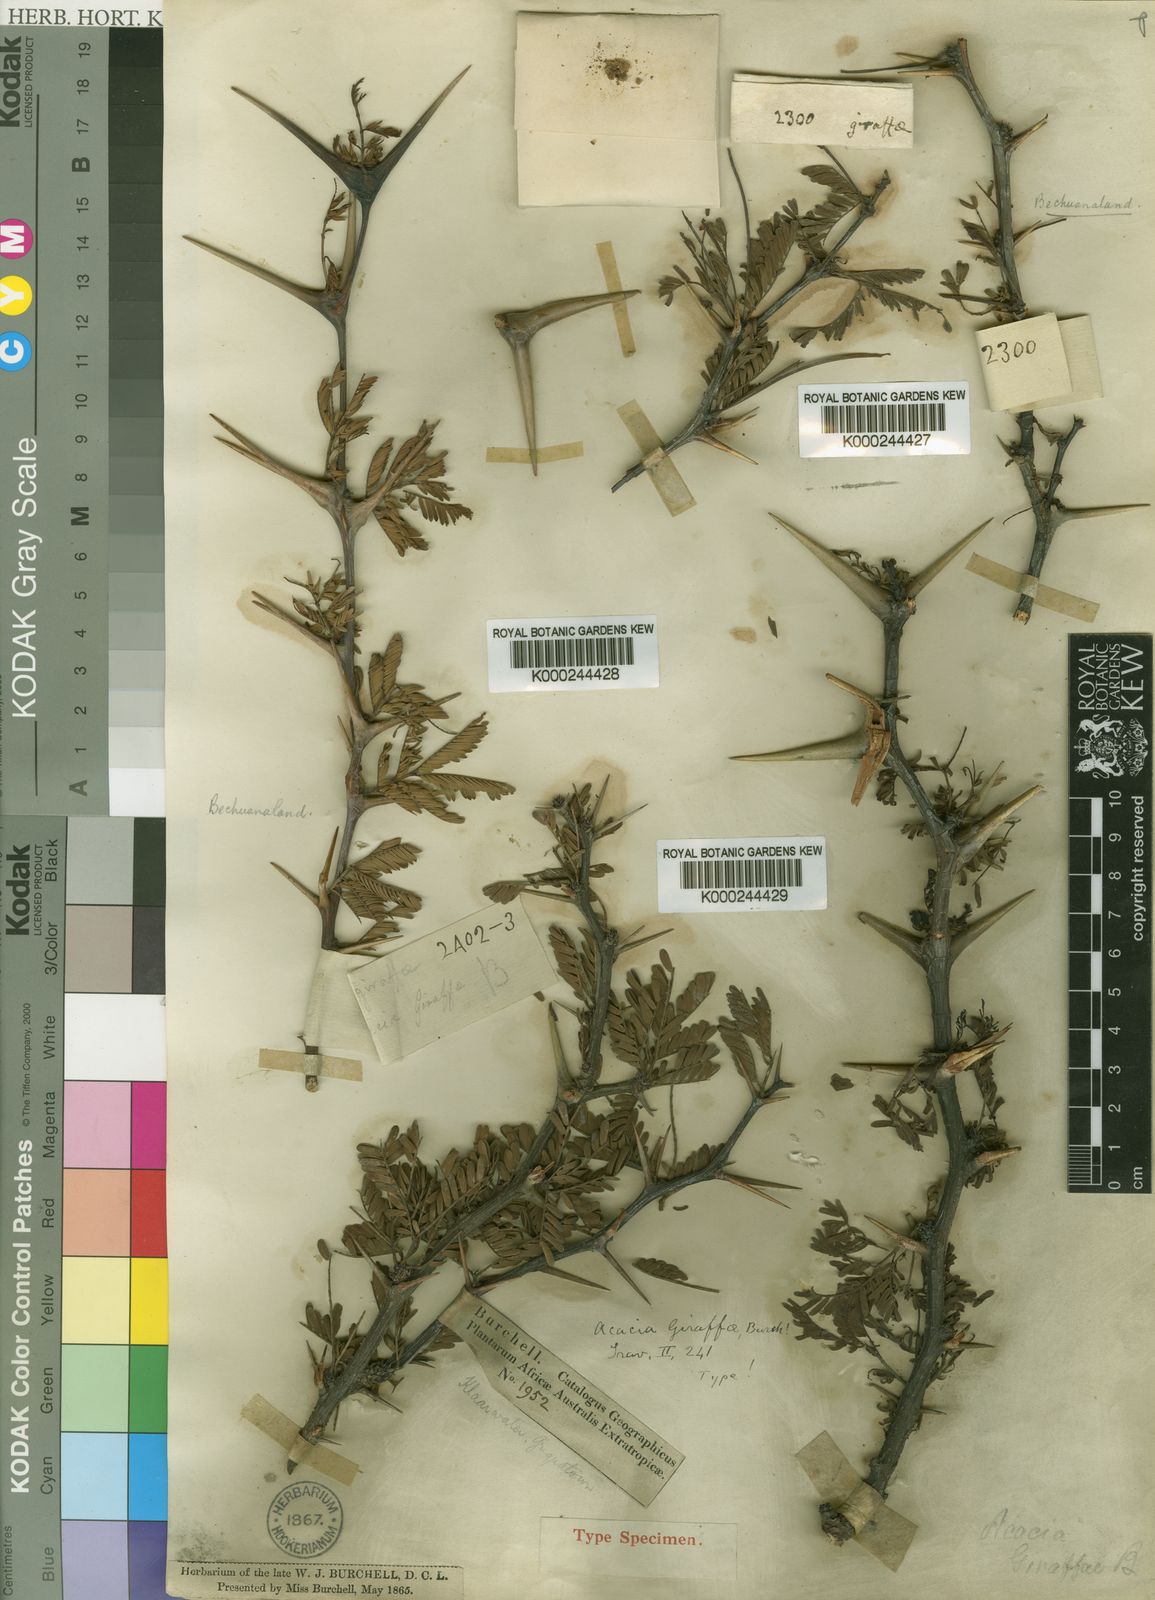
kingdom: Plantae
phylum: Tracheophyta
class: Magnoliopsida
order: Fabales
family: Fabaceae
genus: Vachellia
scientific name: Vachellia erioloba
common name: Camel thorn
